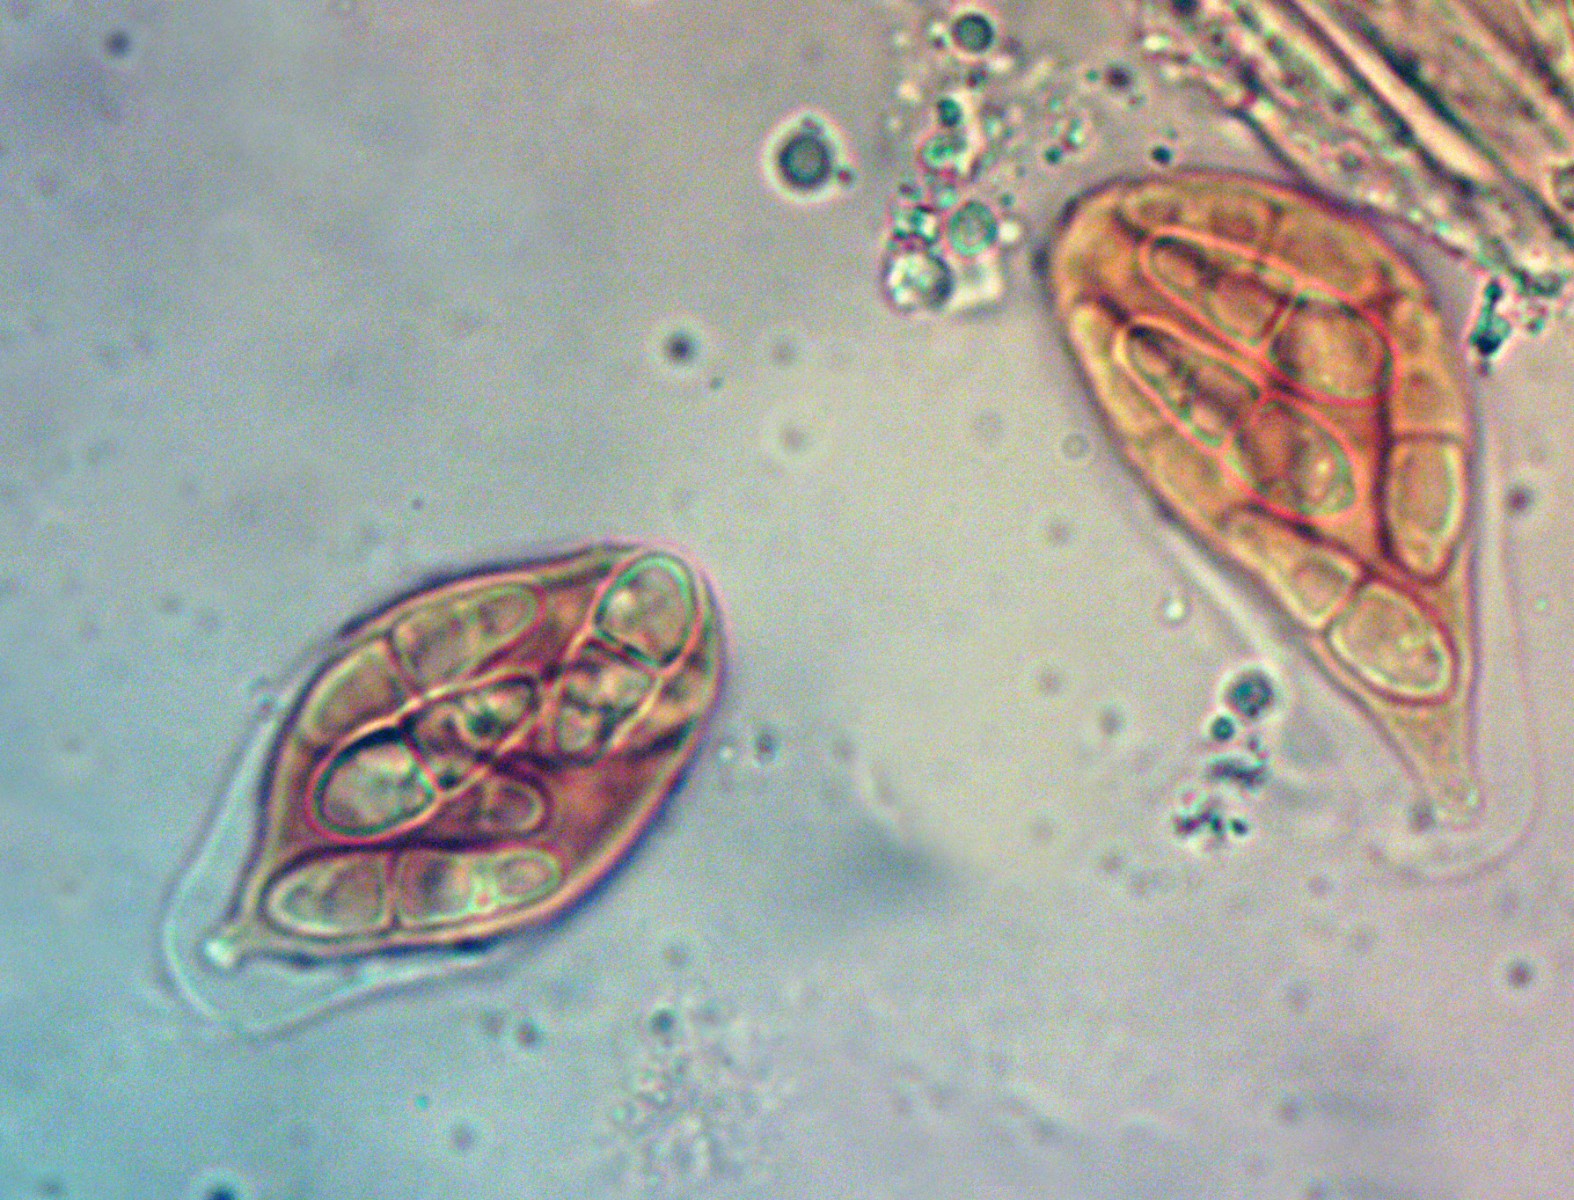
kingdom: Fungi
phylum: Ascomycota
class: Dothideomycetes
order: Capnodiales
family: Cladosporiaceae
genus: Cladosporium
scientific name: Cladosporium iridis
